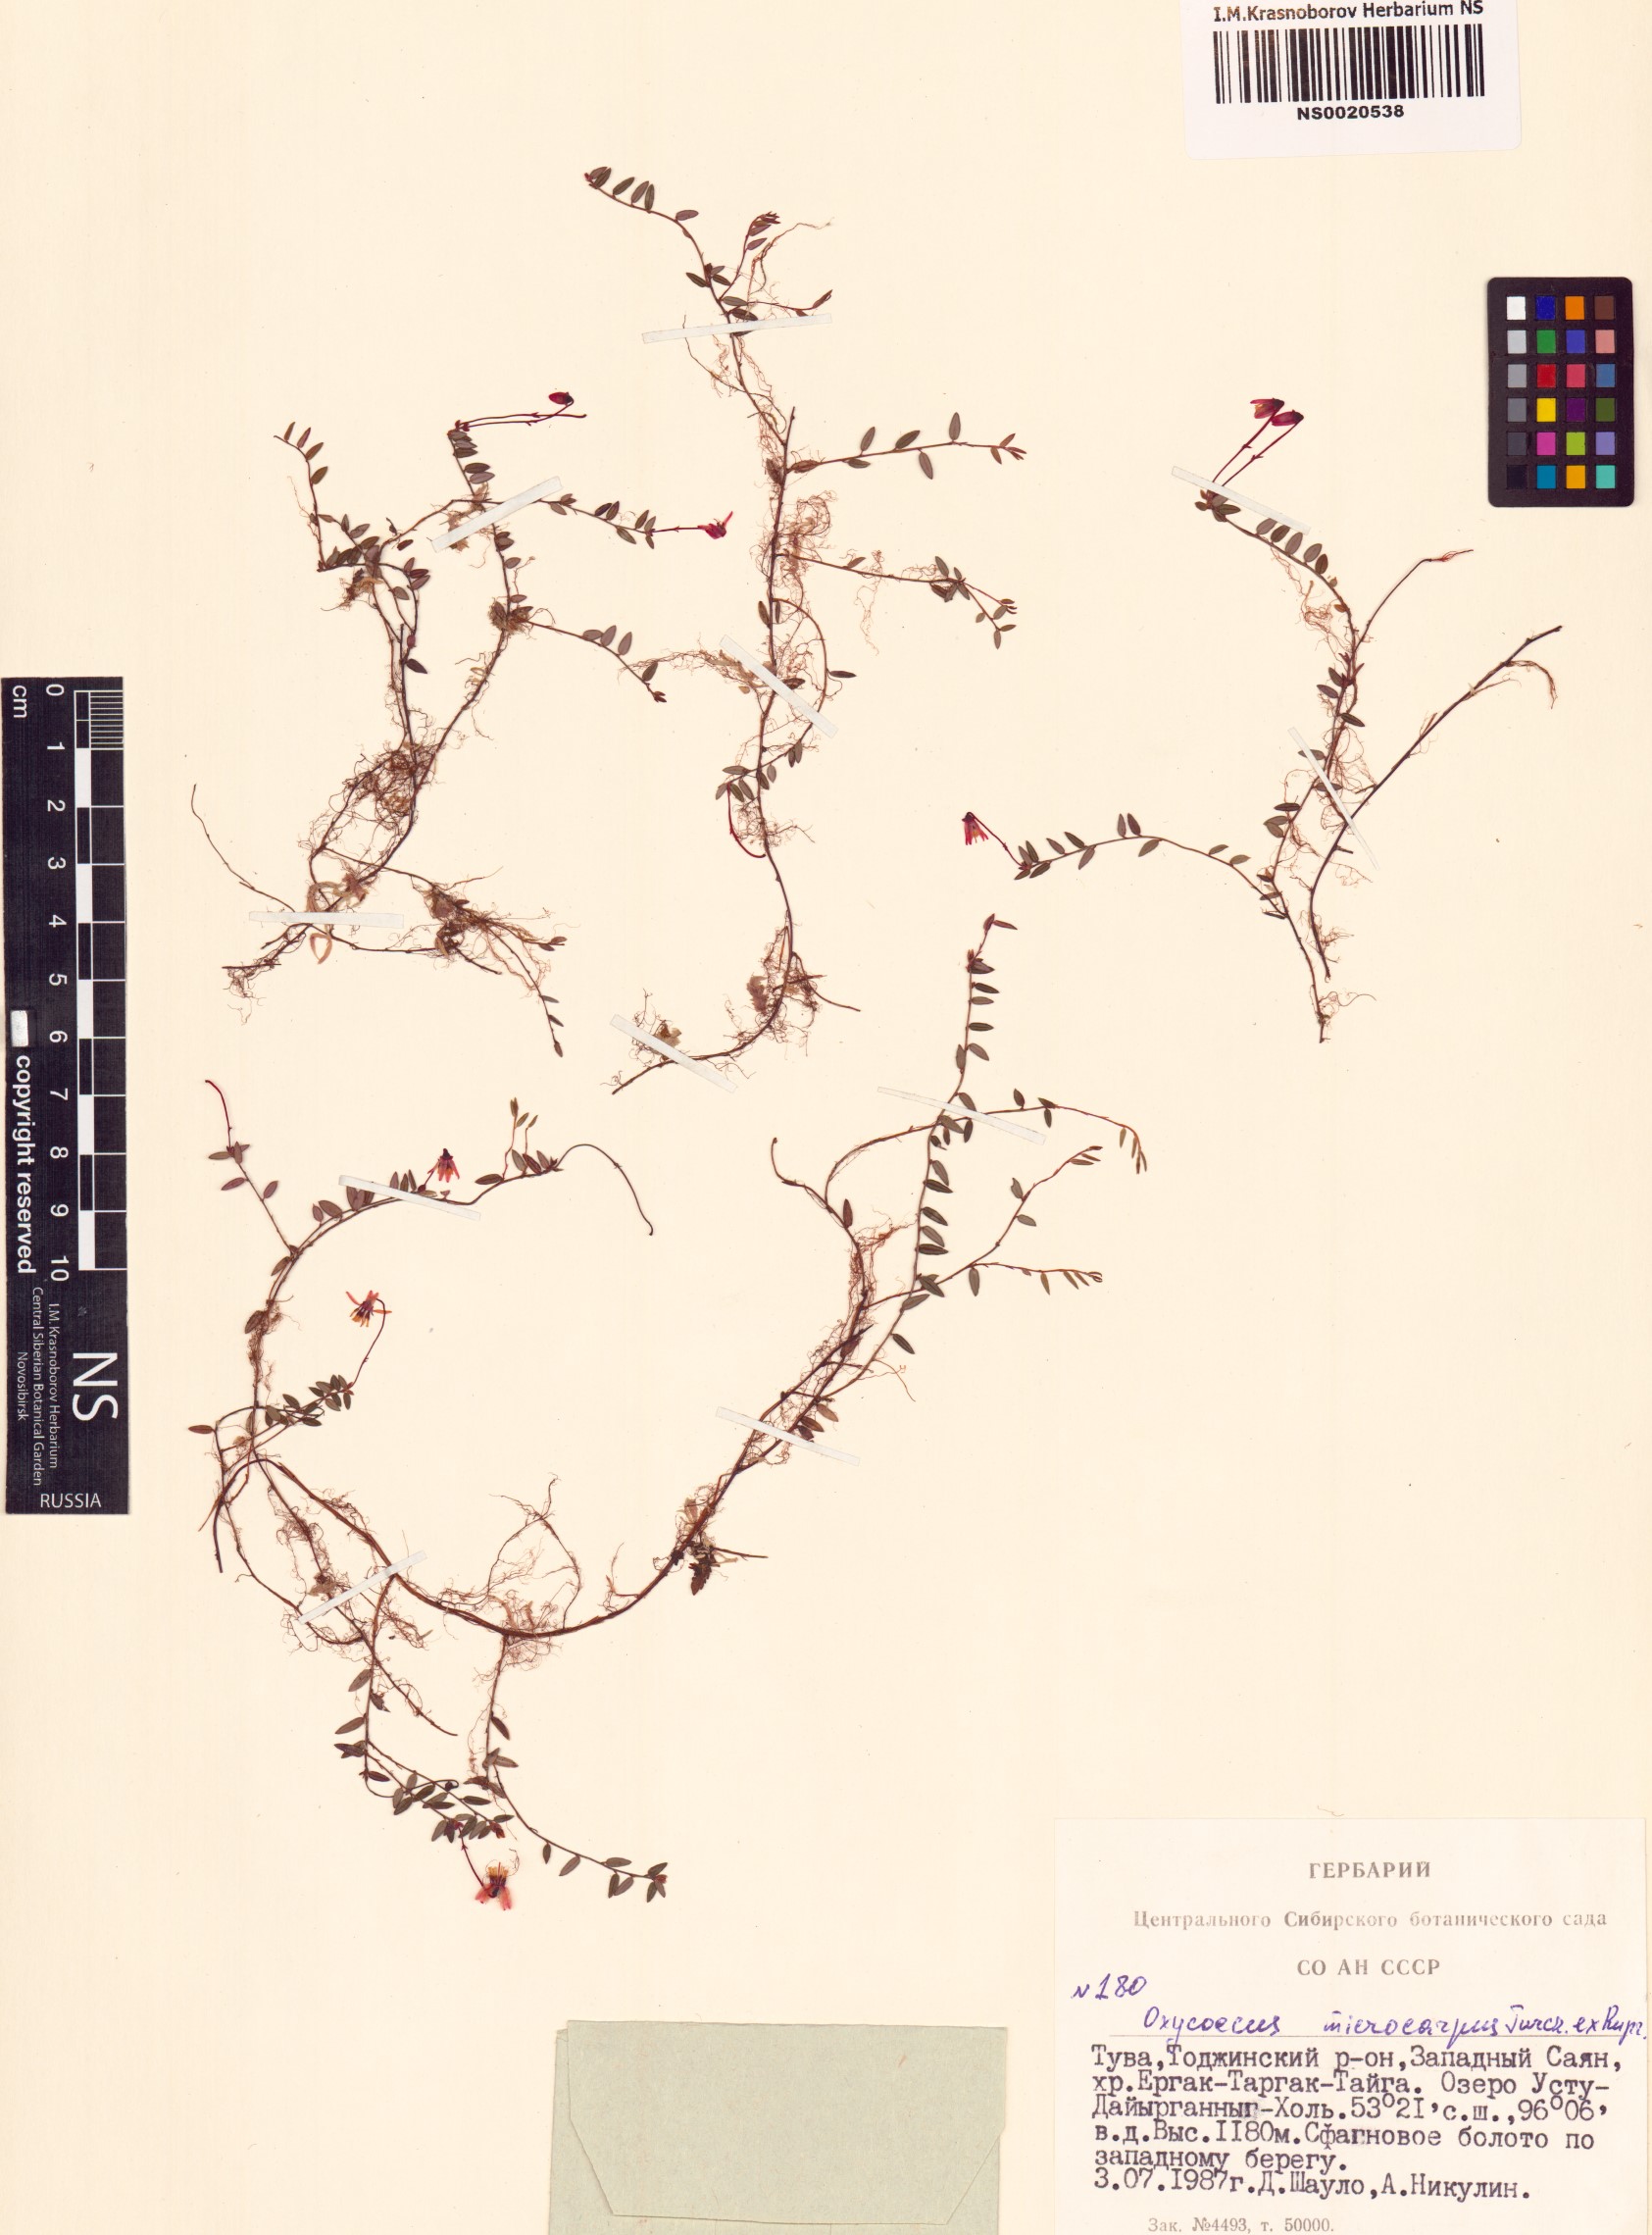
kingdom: Plantae
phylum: Tracheophyta
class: Magnoliopsida
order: Ericales
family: Ericaceae
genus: Vaccinium
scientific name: Vaccinium microcarpum
